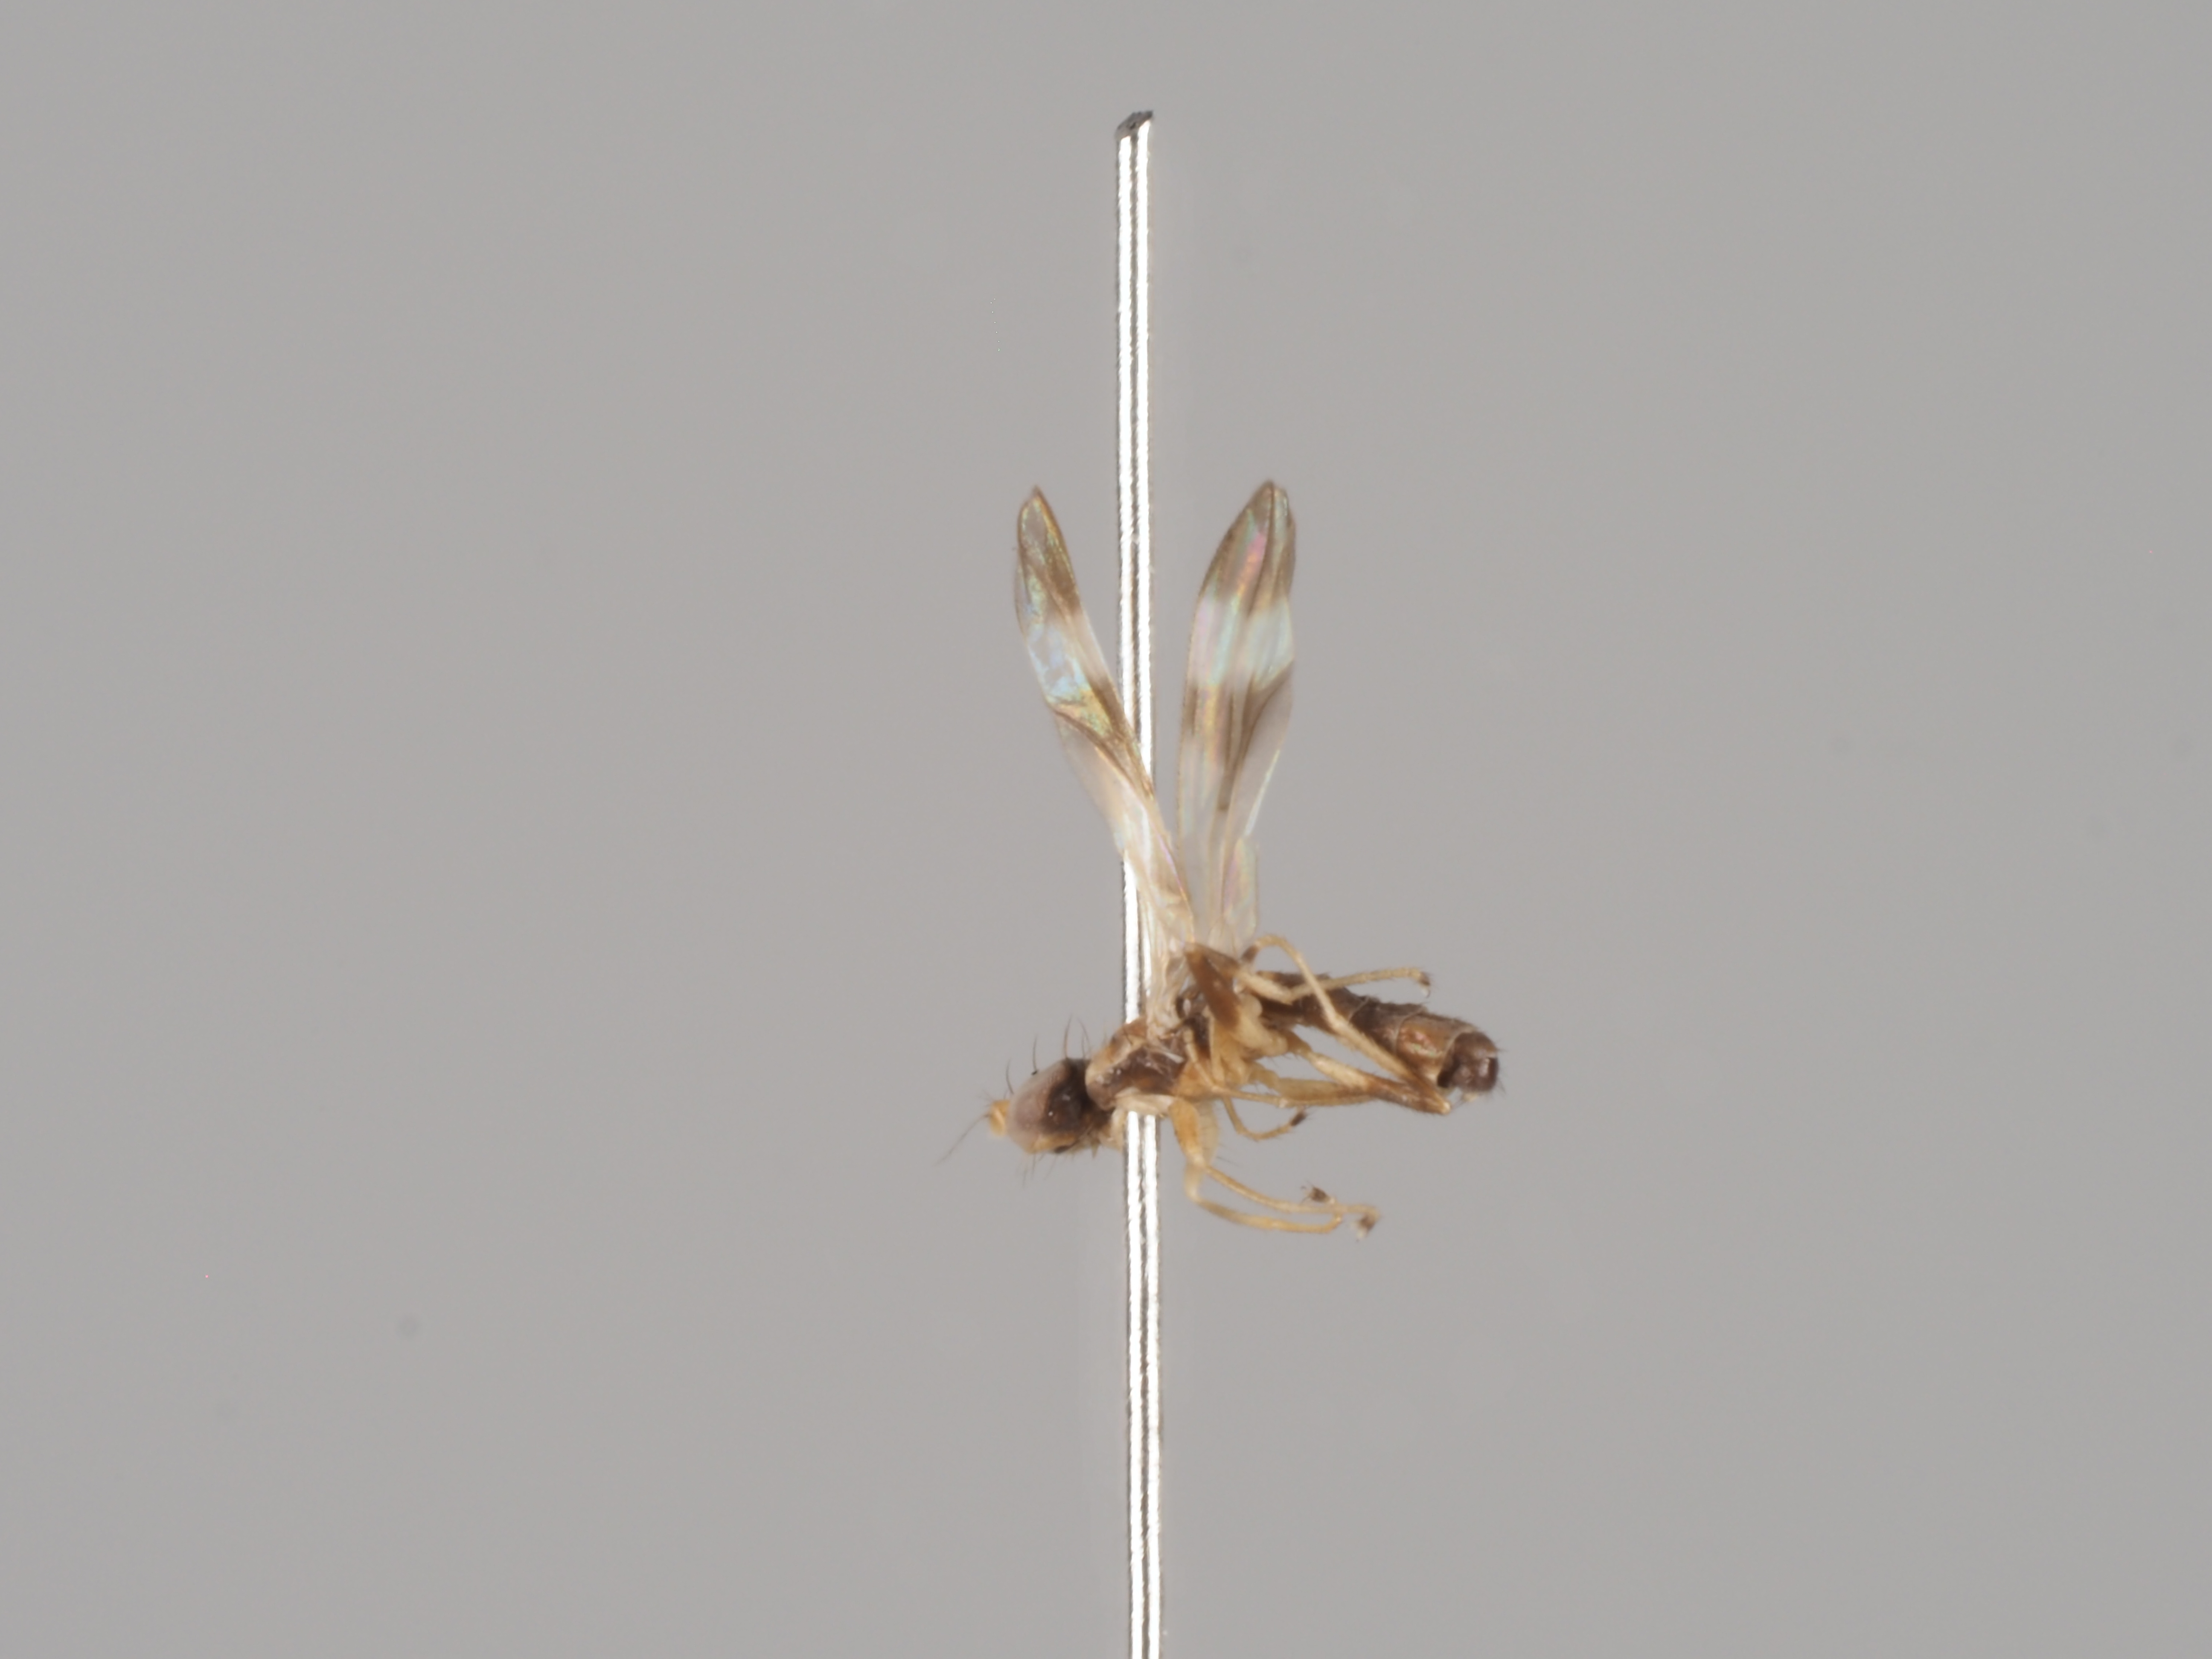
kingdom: Animalia
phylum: Arthropoda
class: Insecta
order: Diptera
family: Anthomyzidae
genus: Typhamyza
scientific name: Typhamyza bifasciata
